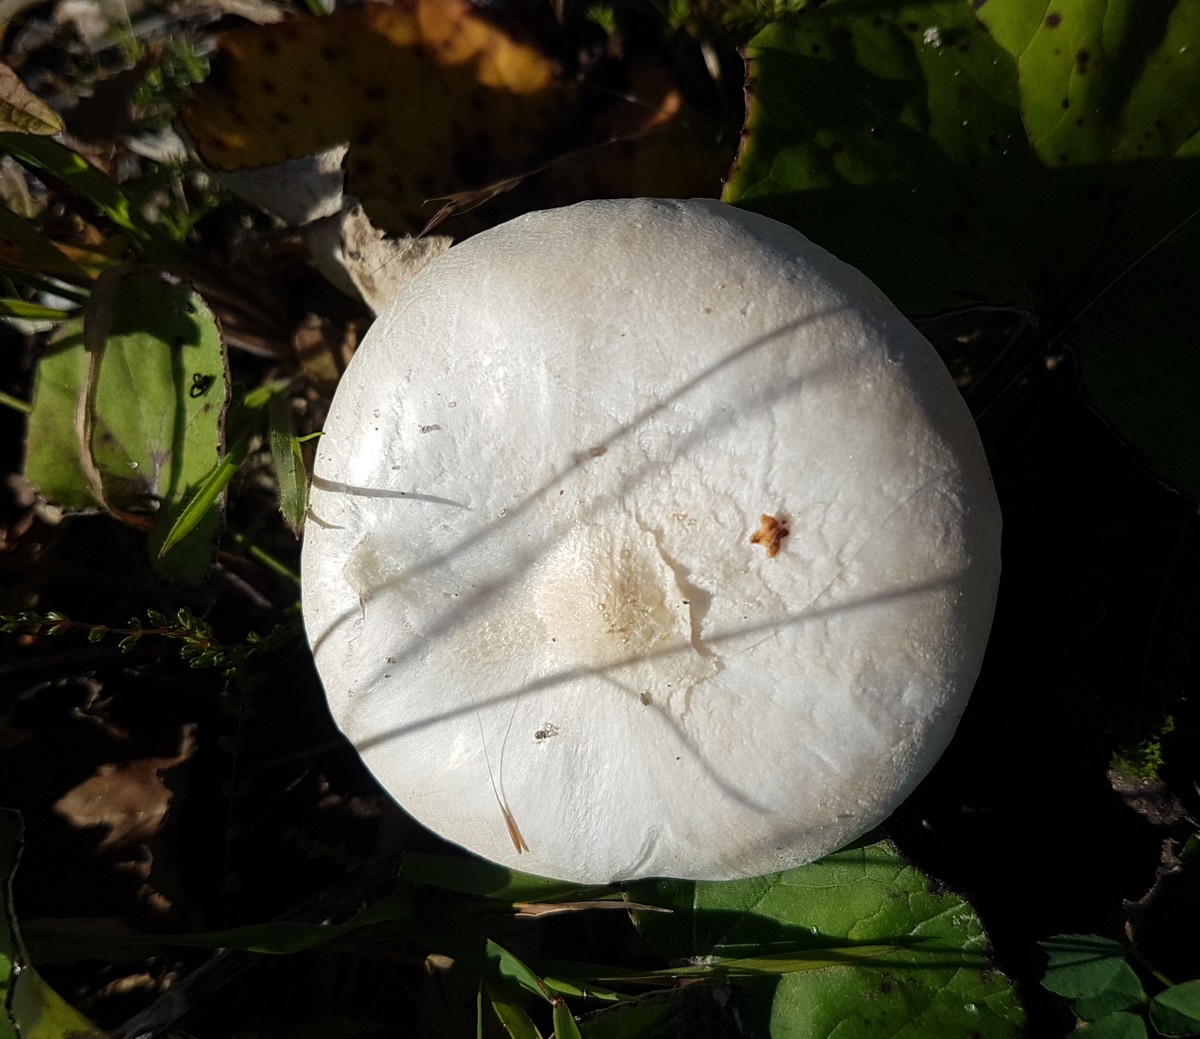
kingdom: Fungi
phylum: Basidiomycota
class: Agaricomycetes
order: Agaricales
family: Tricholomataceae
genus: Melanoleuca
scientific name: Melanoleuca verrucipes
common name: rufodet munkehat
